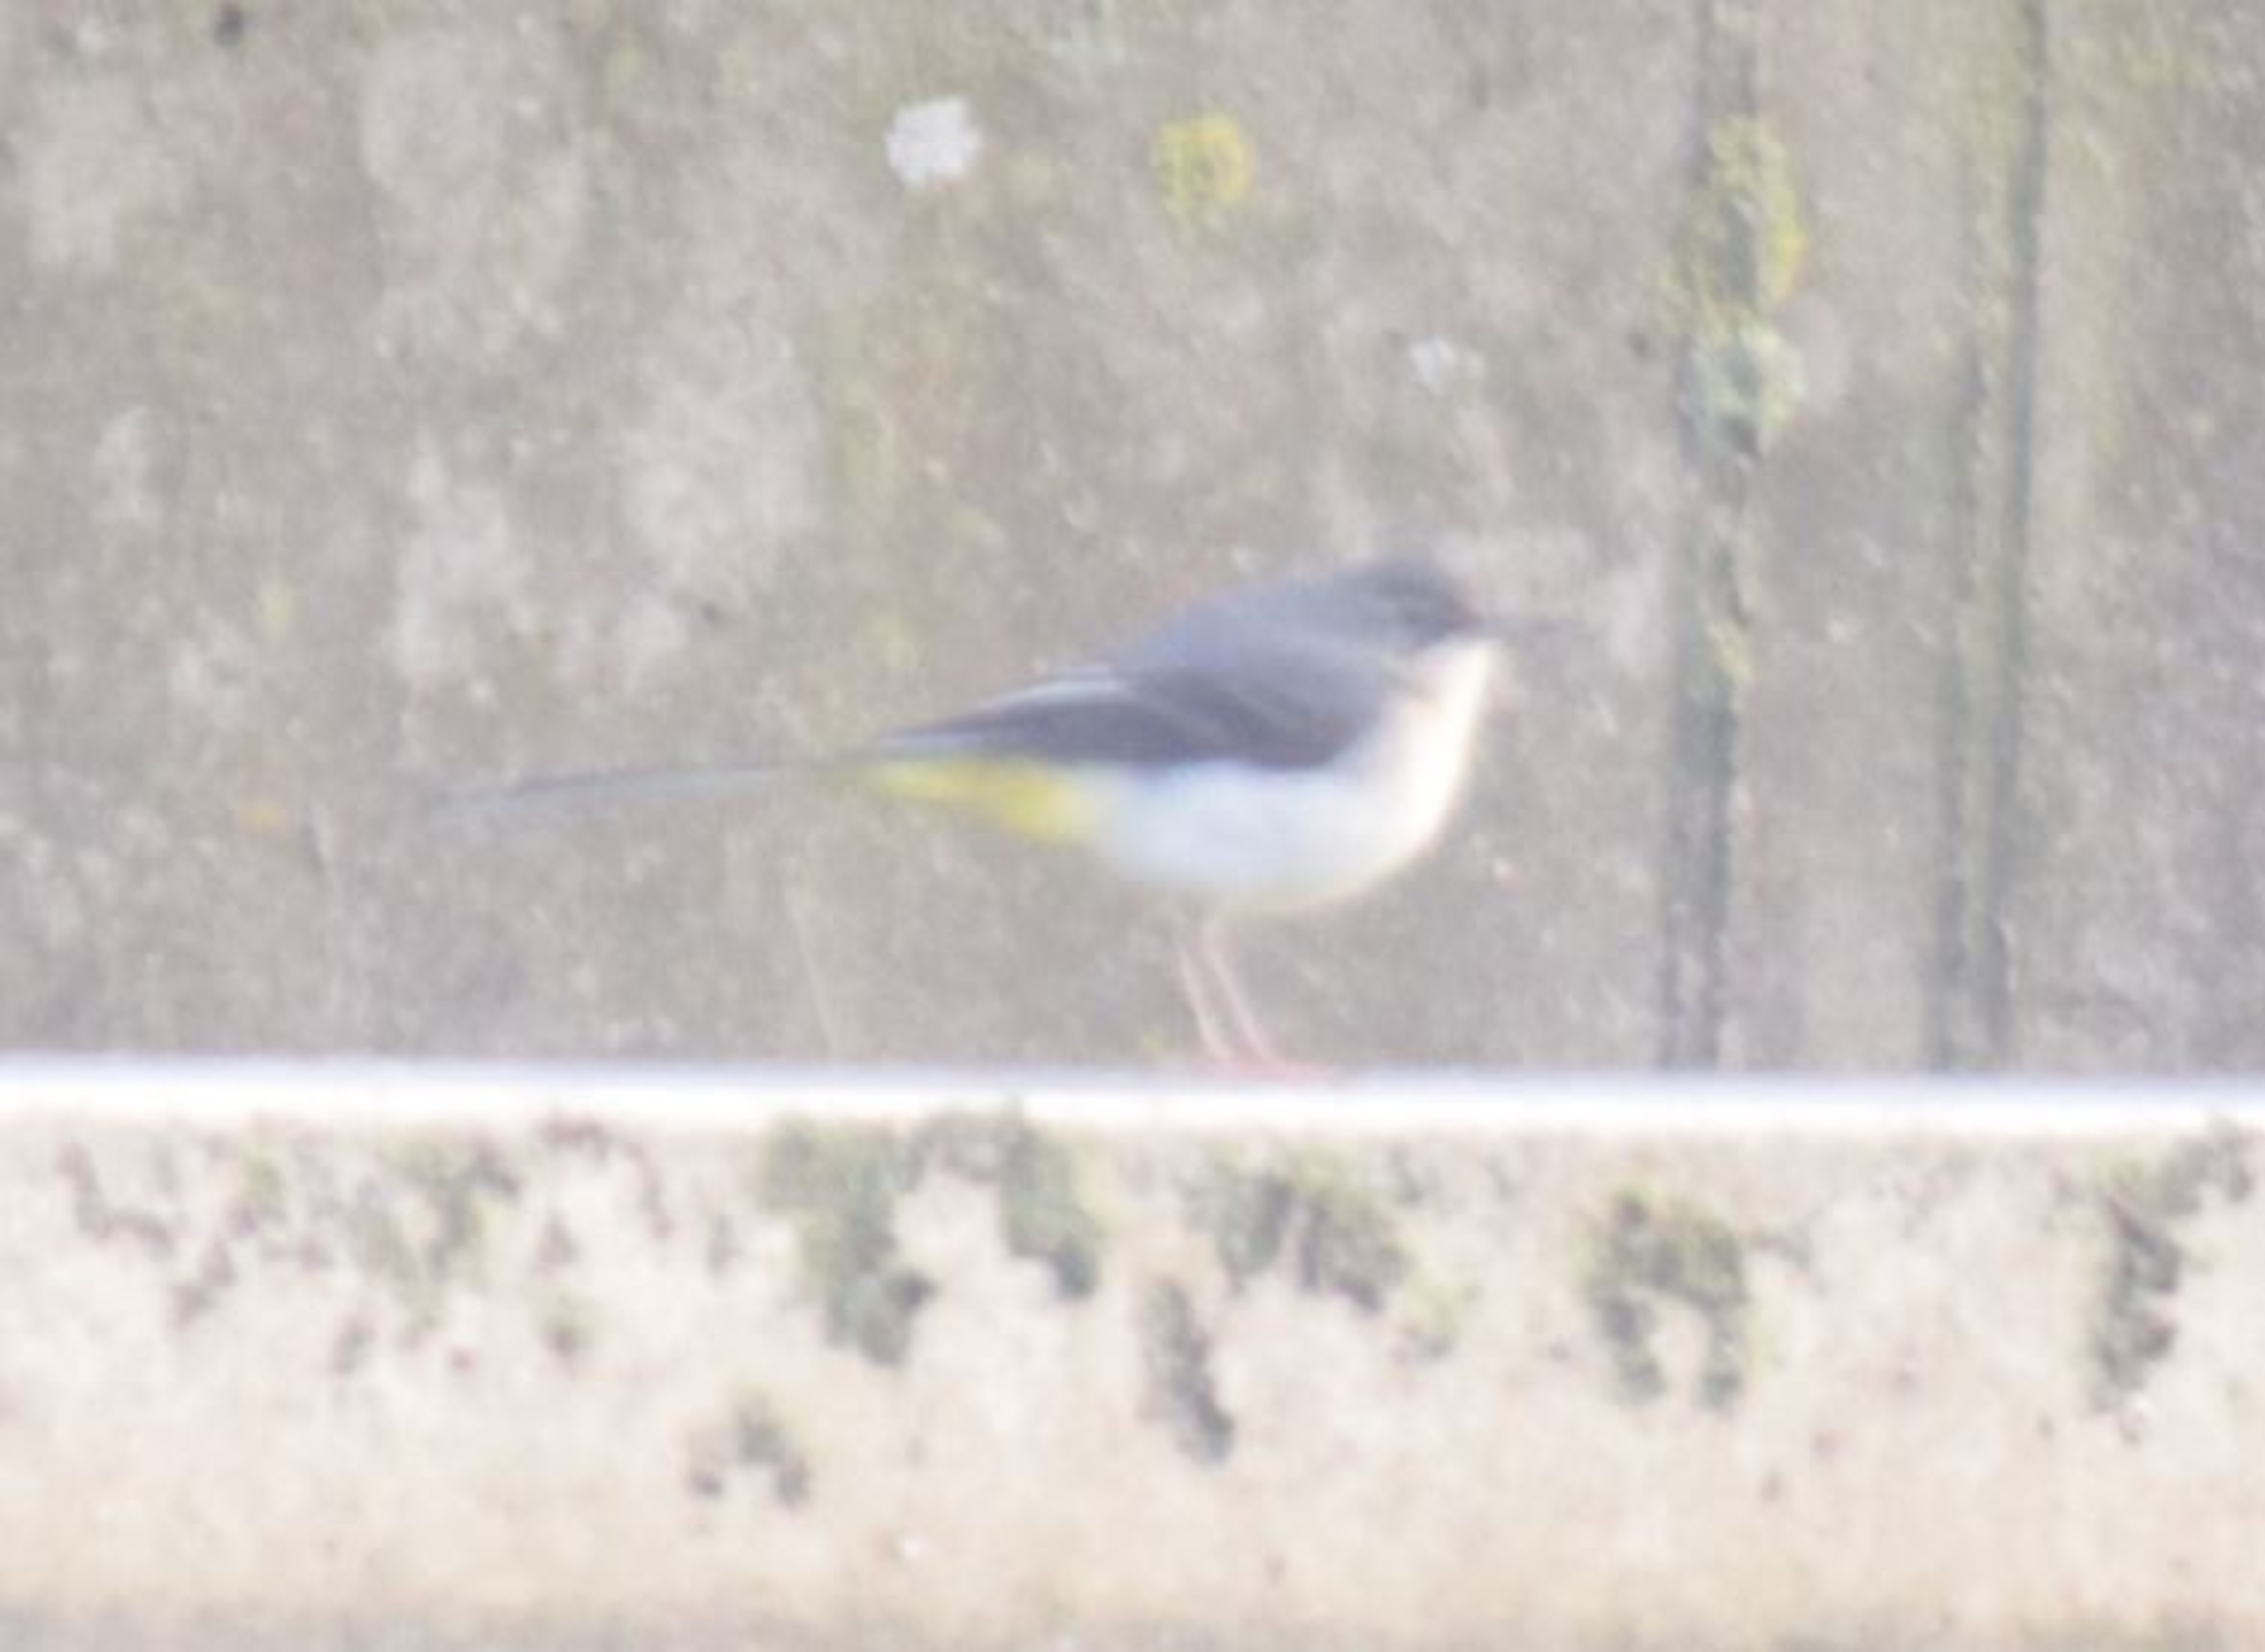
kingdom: Animalia
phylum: Chordata
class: Aves
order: Passeriformes
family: Motacillidae
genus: Motacilla
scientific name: Motacilla cinerea
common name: Bjergvipstjert
